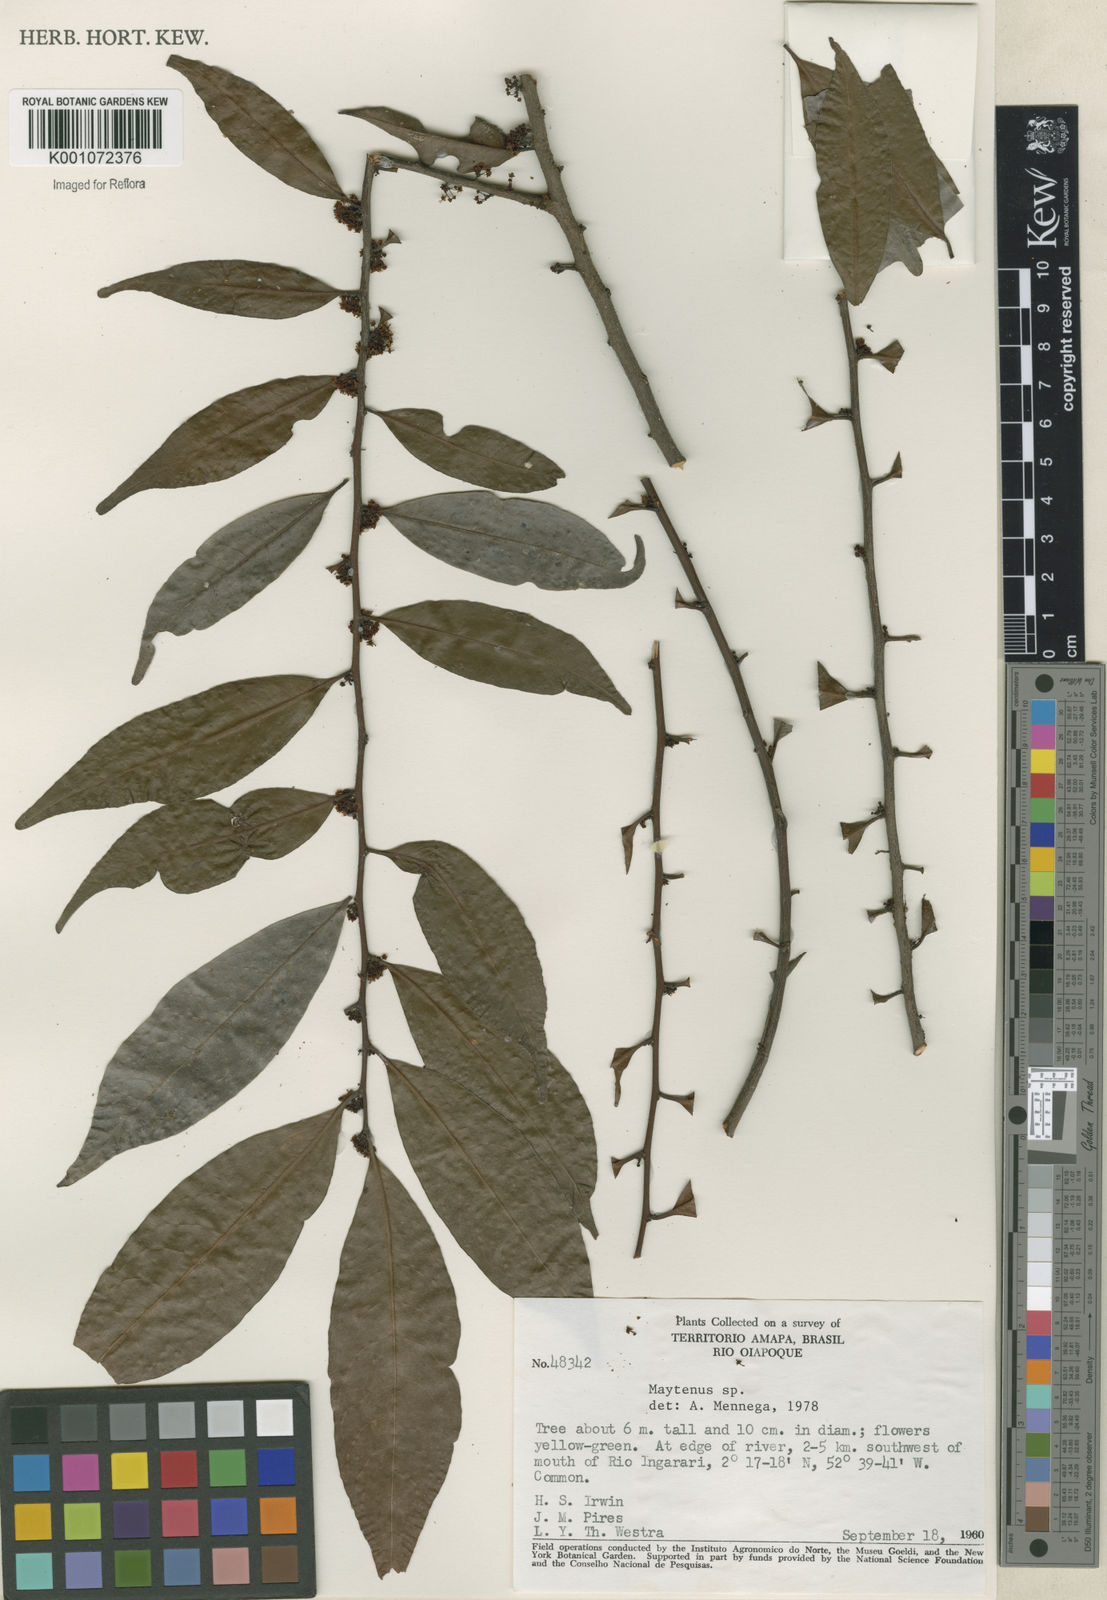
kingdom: Plantae
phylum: Tracheophyta
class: Magnoliopsida
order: Celastrales
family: Celastraceae
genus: Maytenus
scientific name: Maytenus
